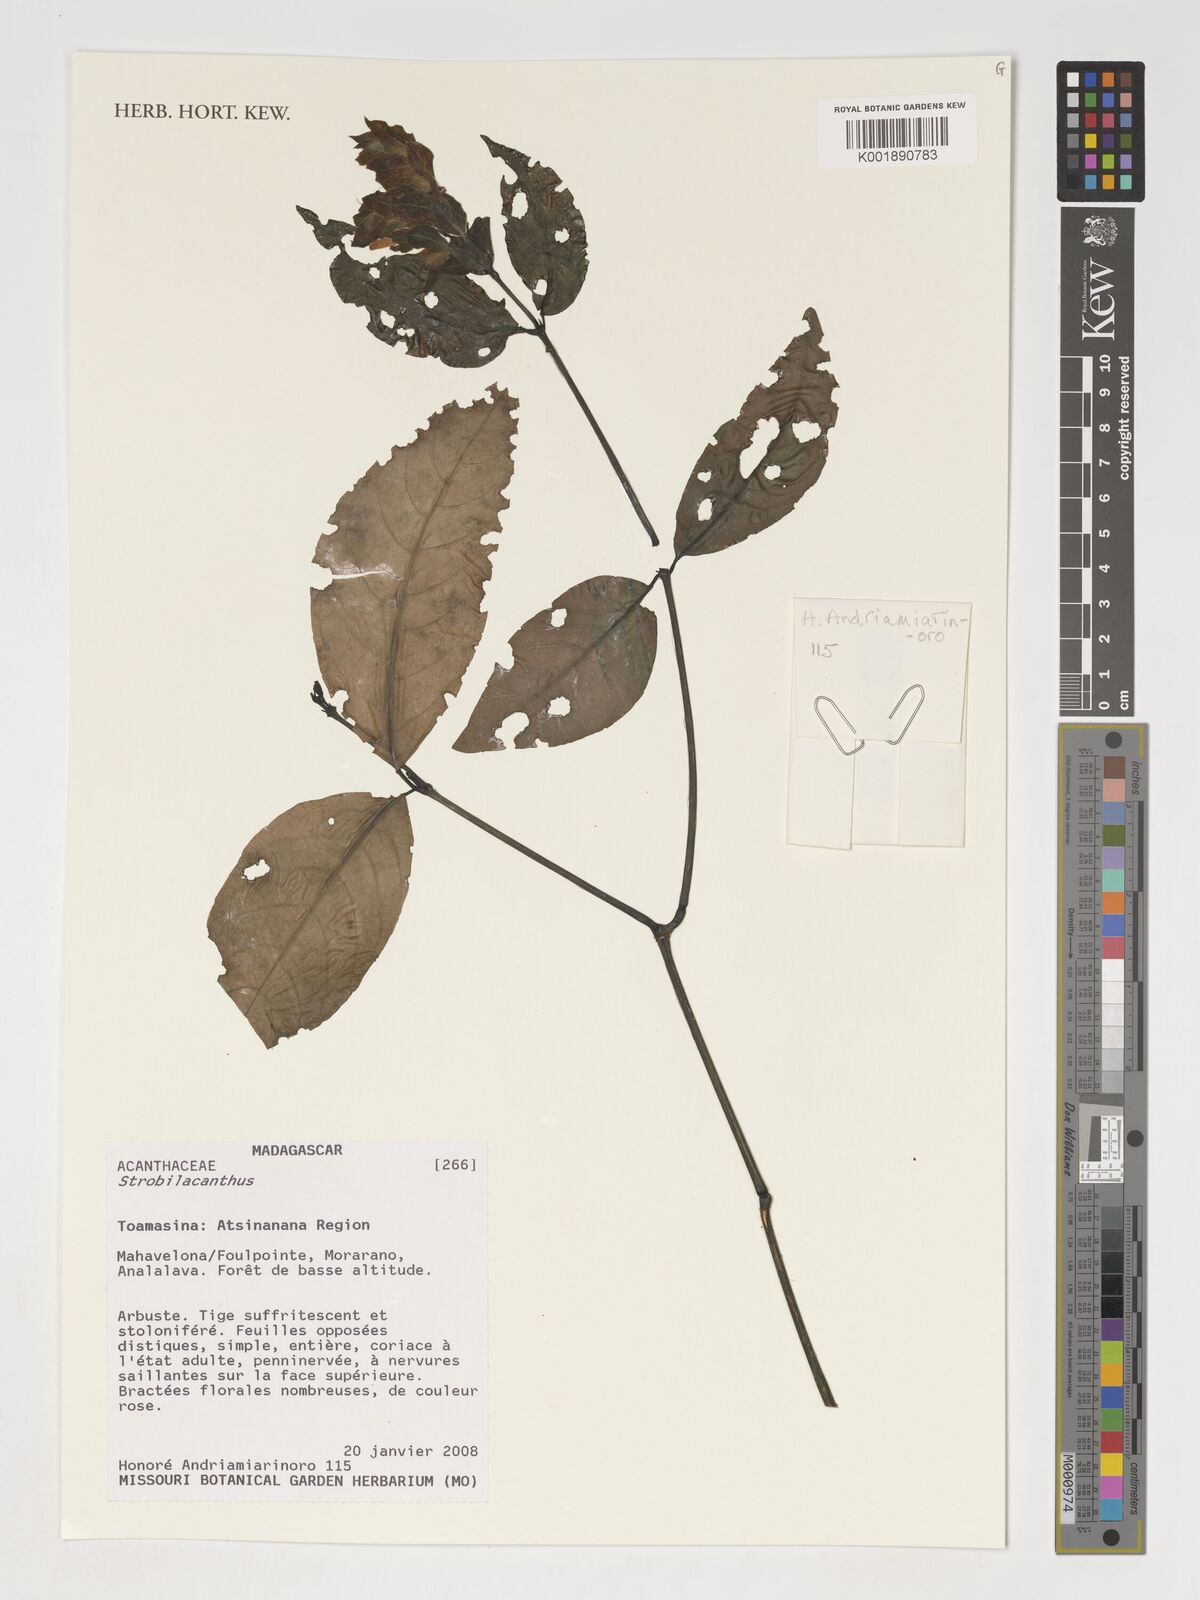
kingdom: Plantae
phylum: Tracheophyta
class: Magnoliopsida
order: Lamiales
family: Acanthaceae
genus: Crossandra
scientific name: Crossandra
